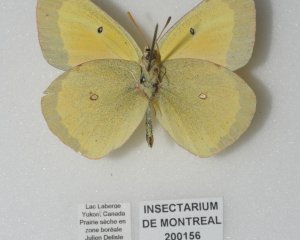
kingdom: Animalia
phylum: Arthropoda
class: Insecta
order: Lepidoptera
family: Pieridae
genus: Colias
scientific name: Colias christina
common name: Christina Sulphur
